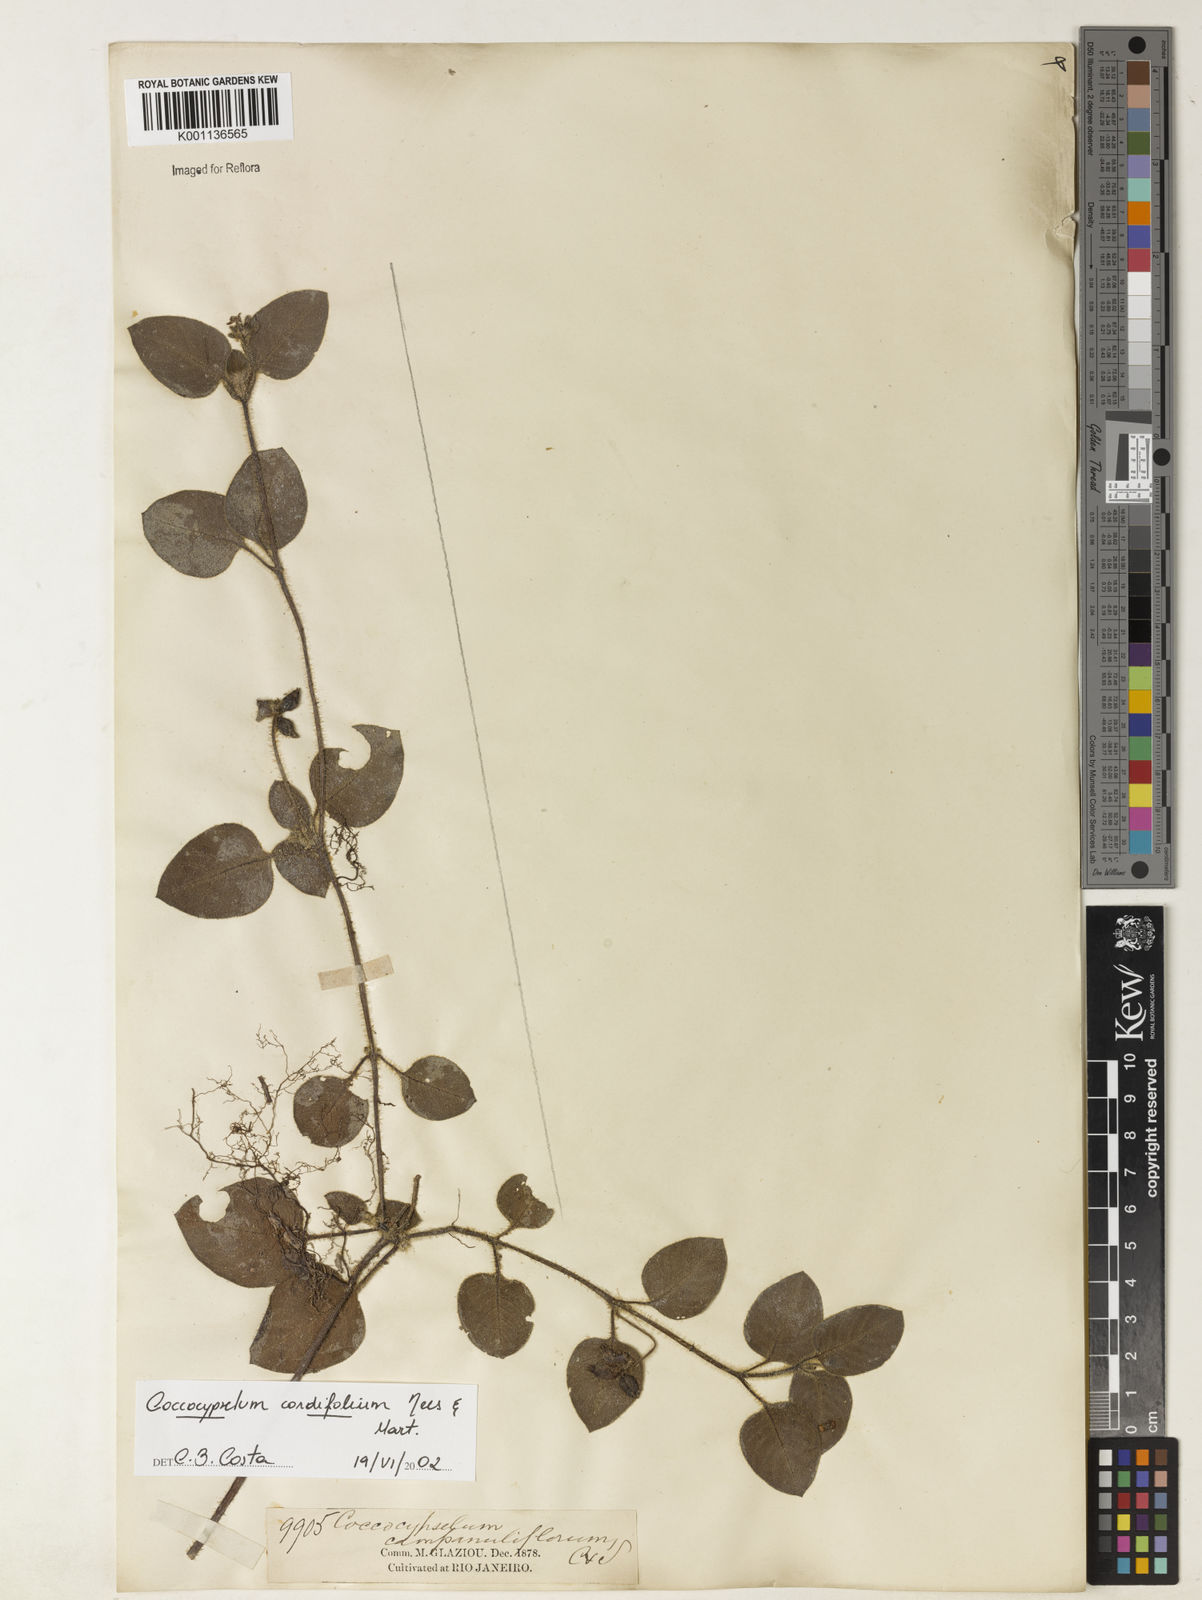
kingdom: Plantae
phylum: Tracheophyta
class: Magnoliopsida
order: Gentianales
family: Rubiaceae
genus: Coccocypselum
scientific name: Coccocypselum cordifolium
